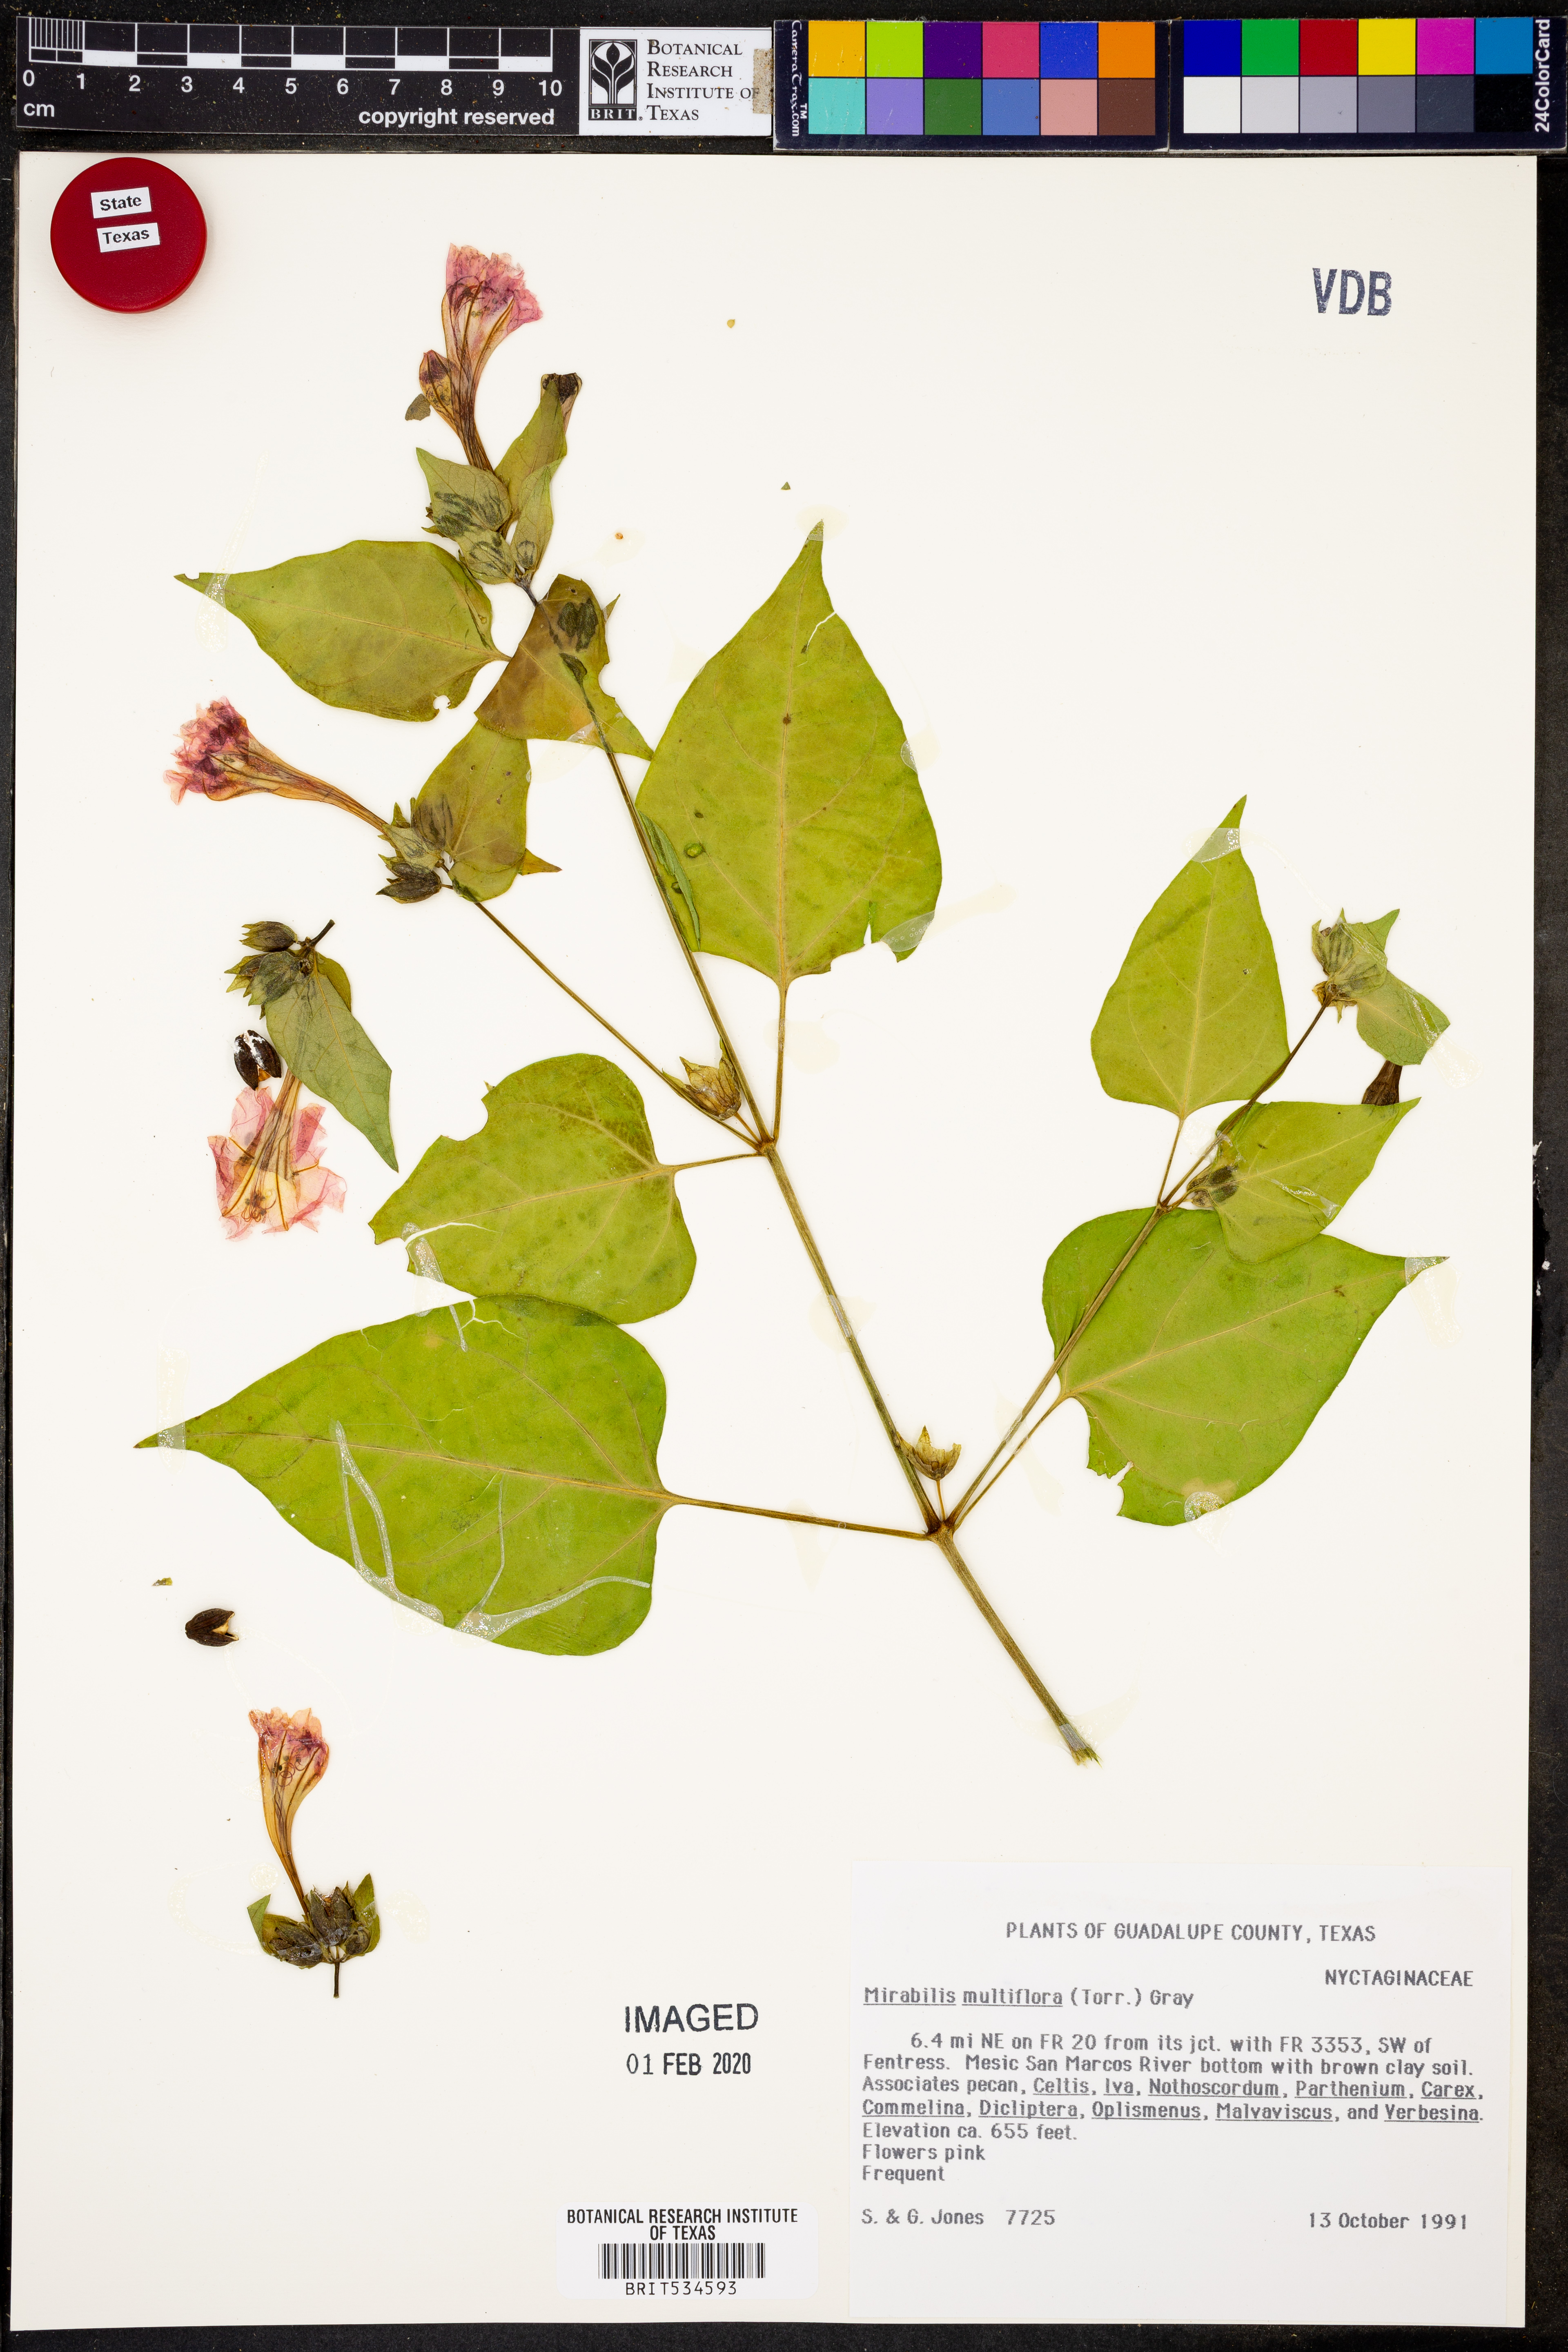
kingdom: Plantae
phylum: Tracheophyta
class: Magnoliopsida
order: Caryophyllales
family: Nyctaginaceae
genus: Mirabilis
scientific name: Mirabilis multiflora
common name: Froebel's four-o'clock
